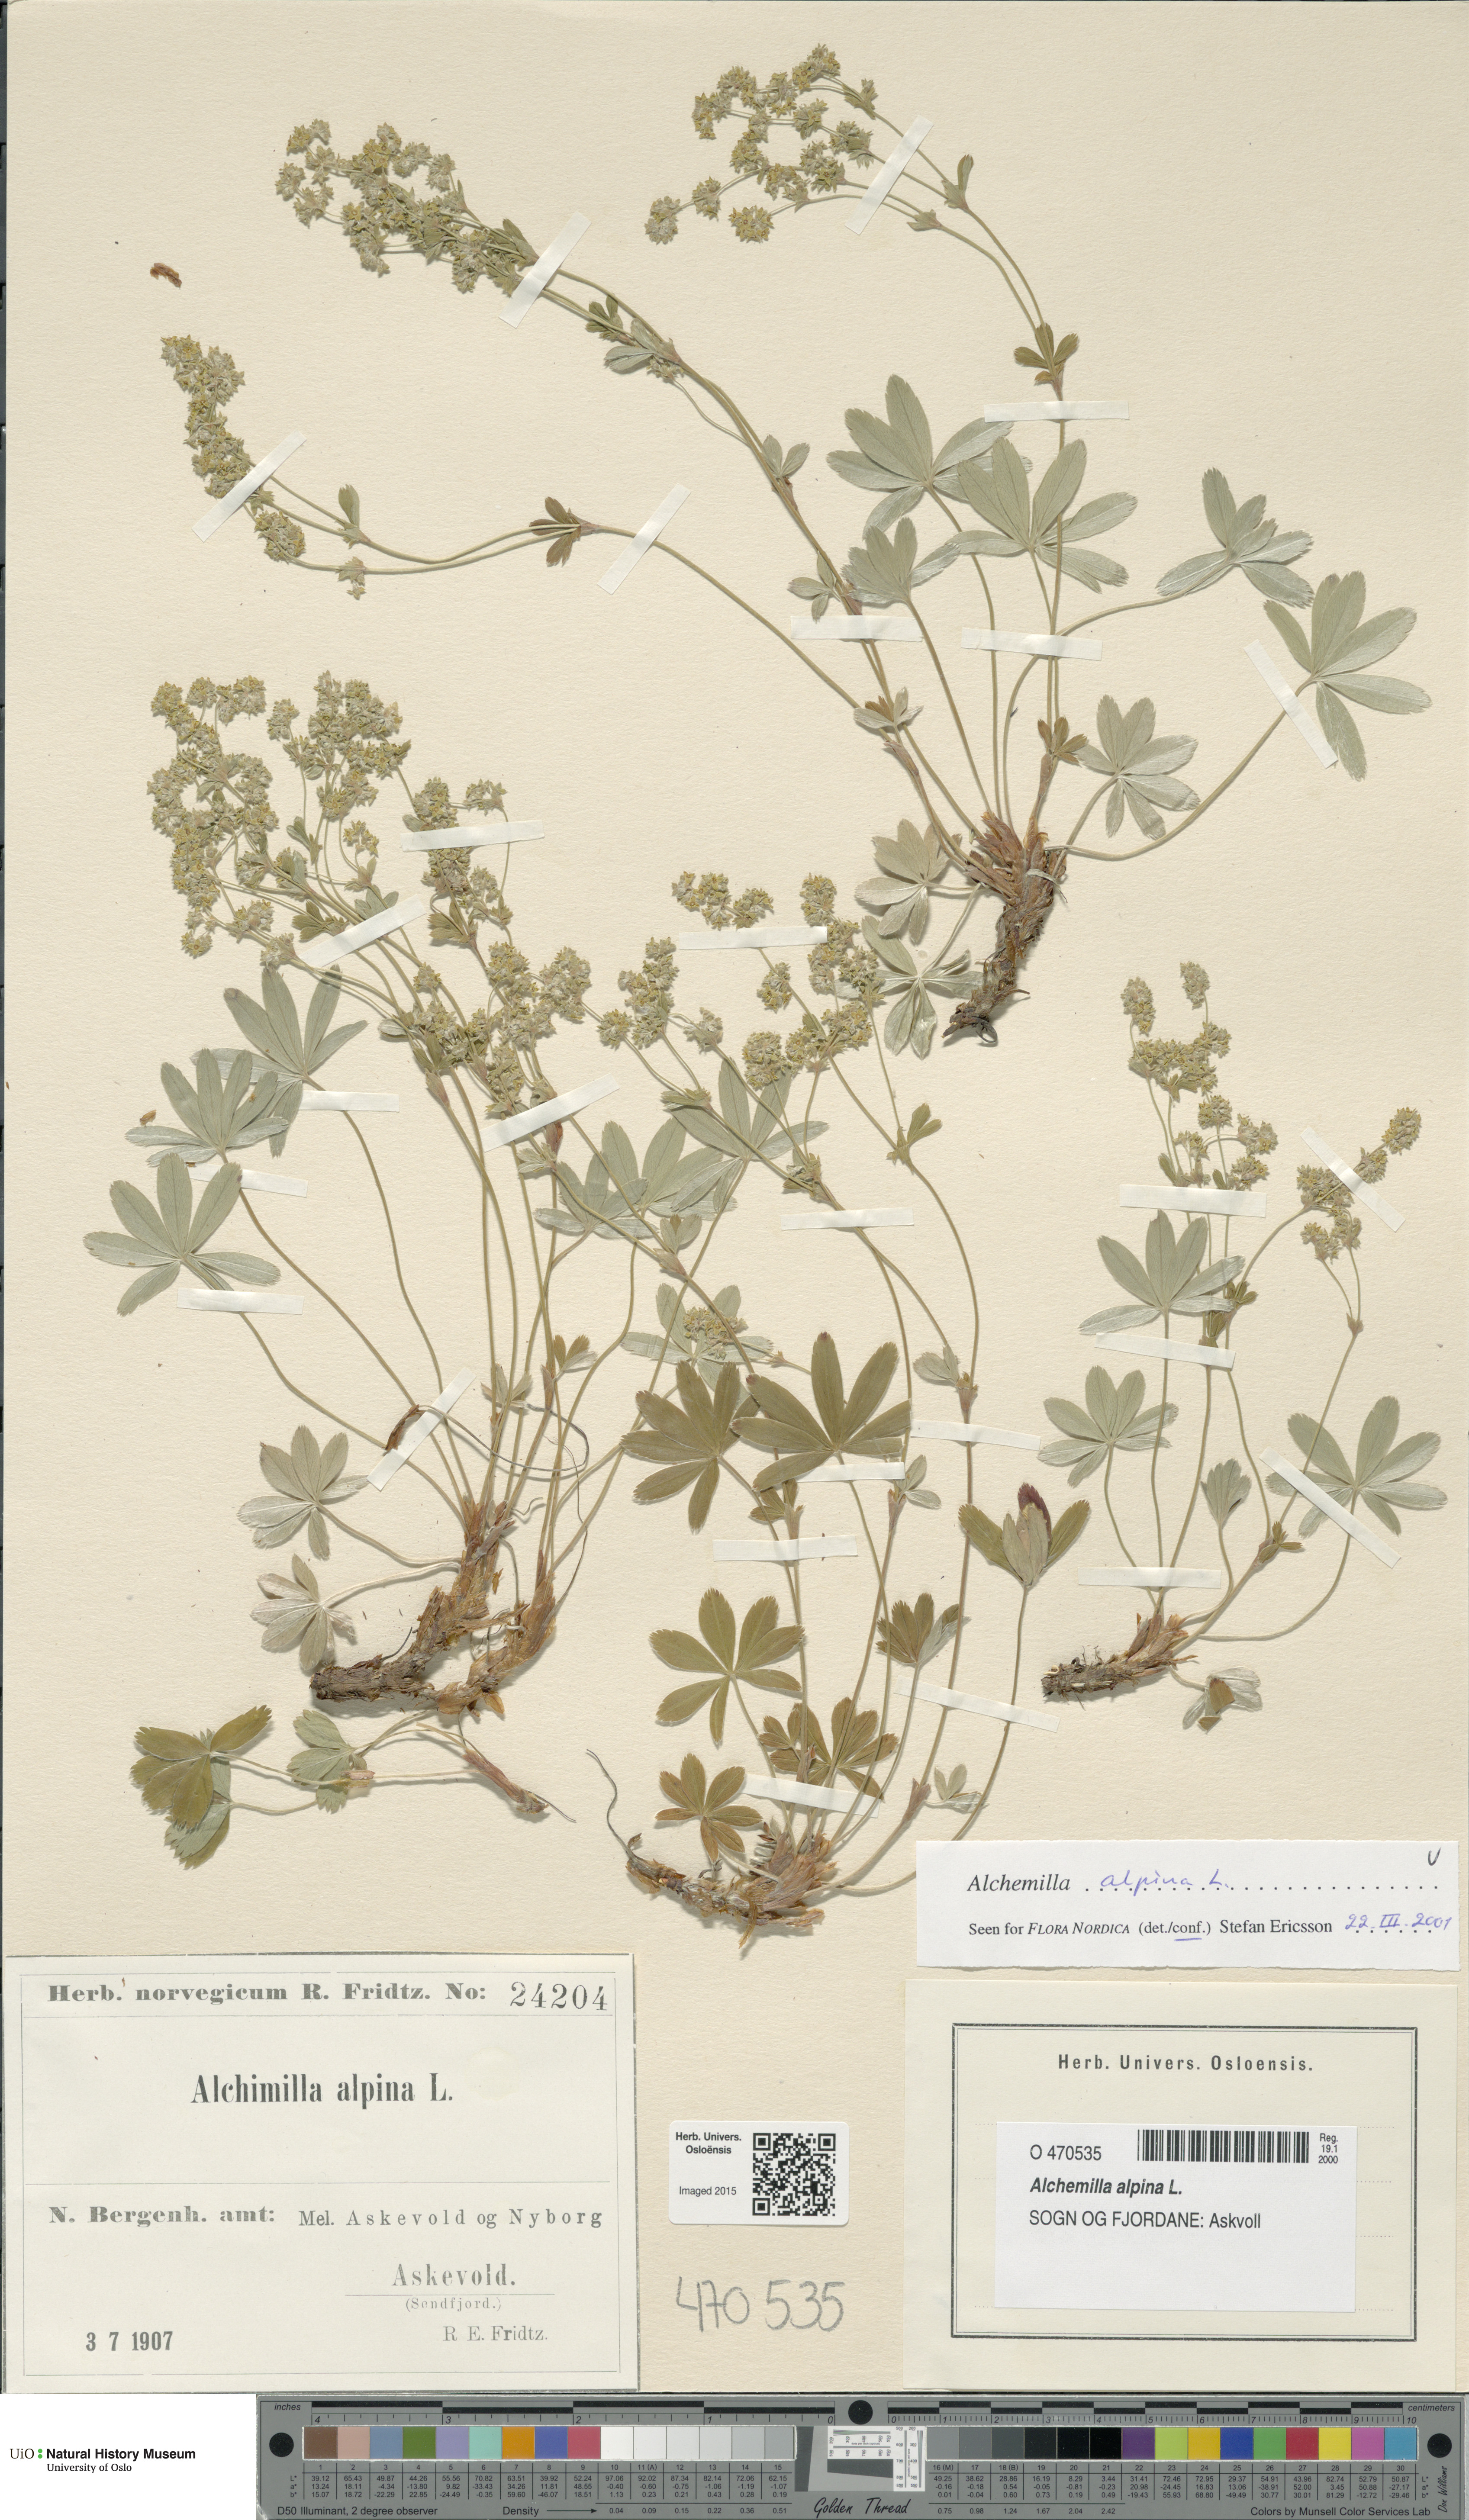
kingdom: Plantae
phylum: Tracheophyta
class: Magnoliopsida
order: Rosales
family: Rosaceae
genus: Alchemilla
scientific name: Alchemilla alpina
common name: Alpine lady's-mantle
